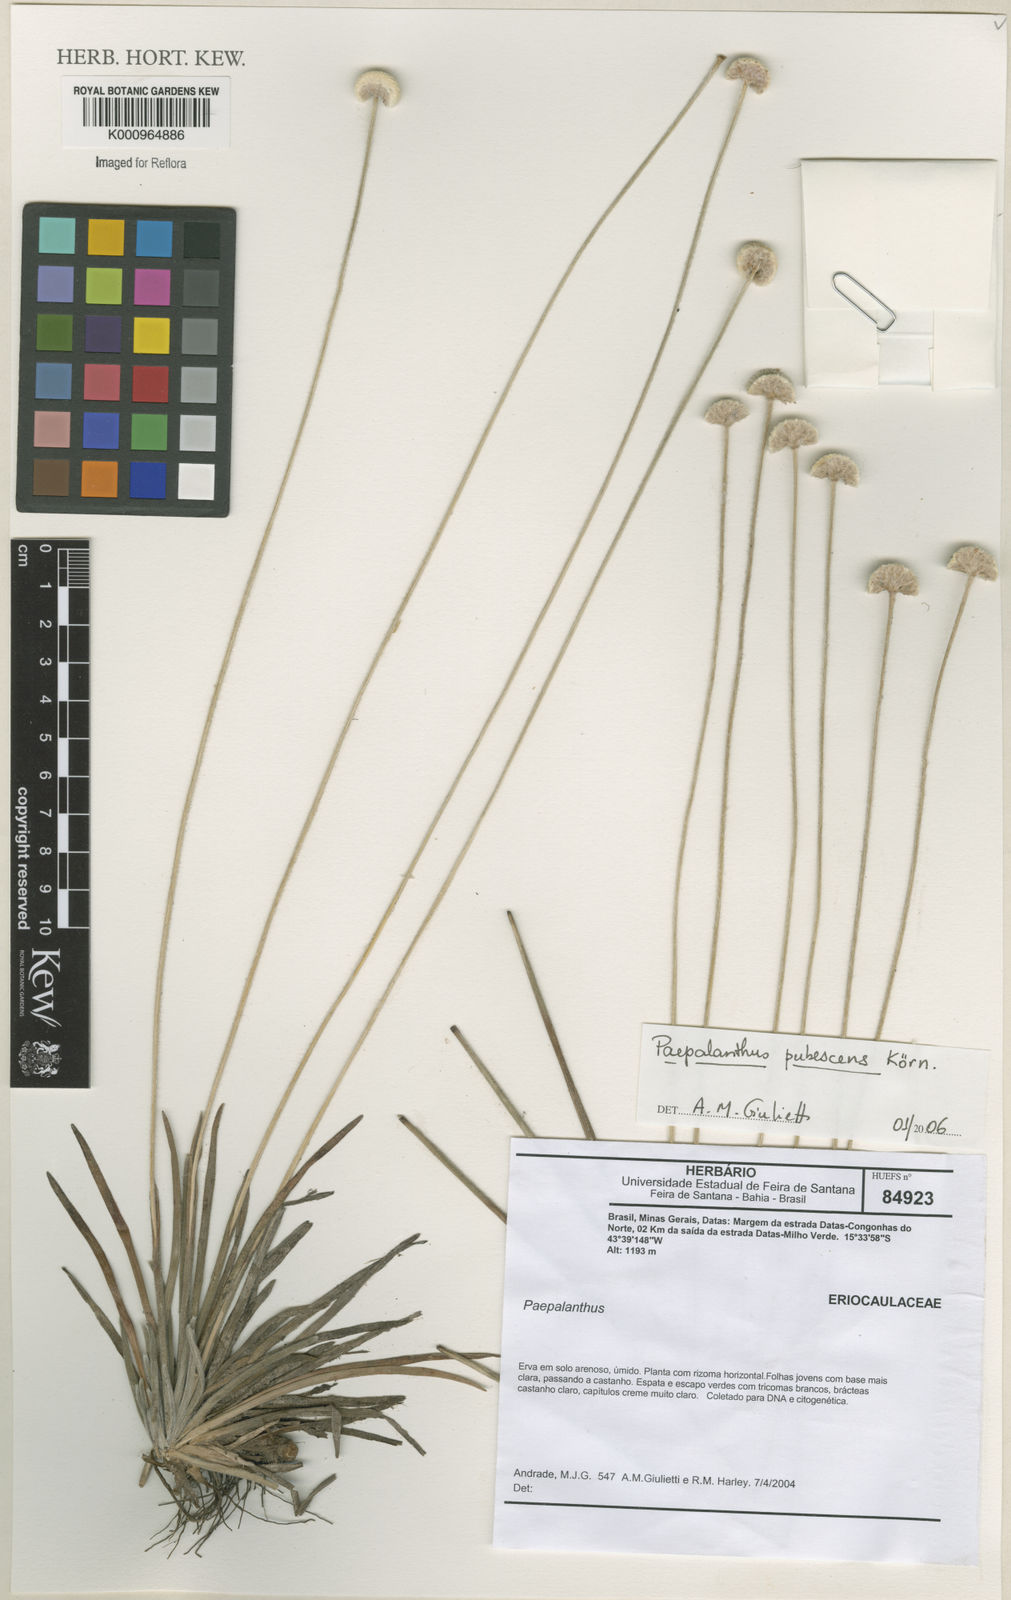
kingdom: Plantae
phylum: Tracheophyta
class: Liliopsida
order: Poales
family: Eriocaulaceae
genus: Paepalanthus
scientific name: Paepalanthus
